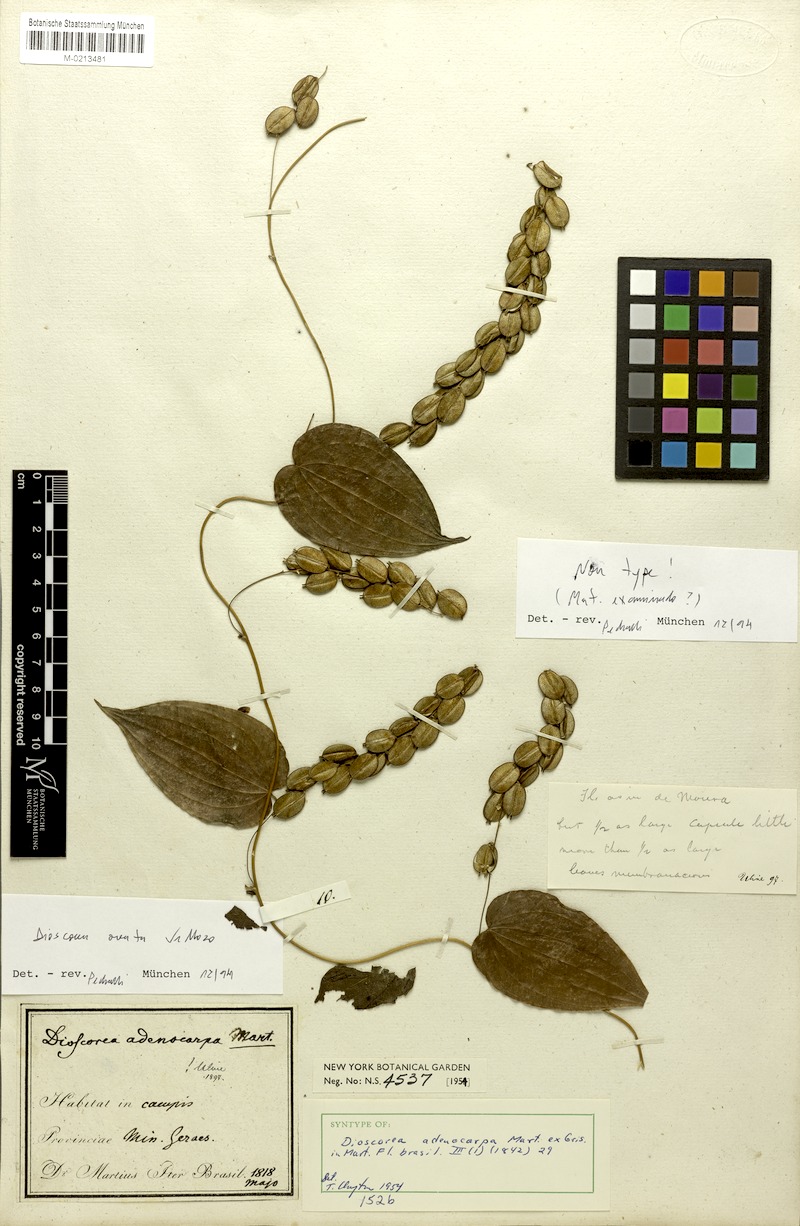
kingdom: Plantae
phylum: Tracheophyta
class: Liliopsida
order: Dioscoreales
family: Dioscoreaceae
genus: Dioscorea
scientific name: Dioscorea ovata
